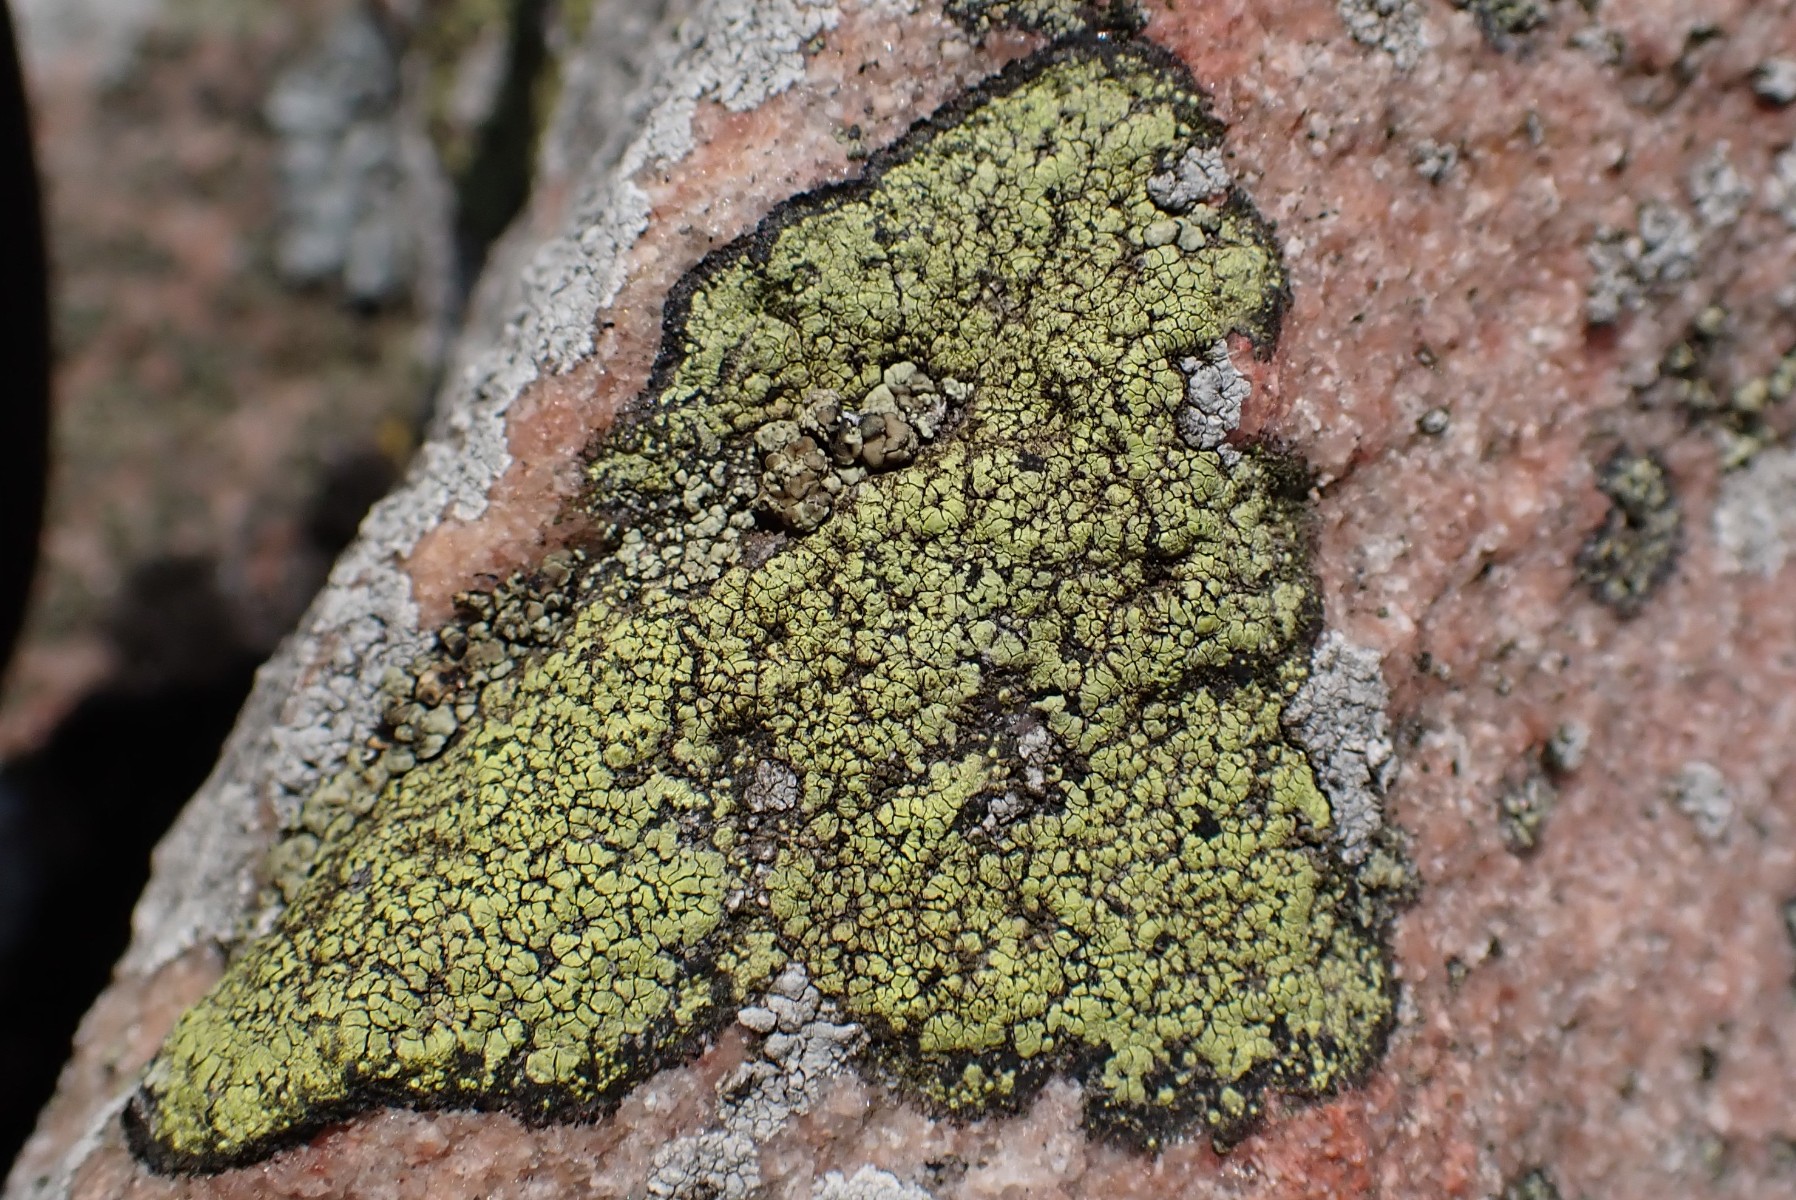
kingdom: Fungi
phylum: Ascomycota
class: Lecanoromycetes
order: Rhizocarpales
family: Rhizocarpaceae
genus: Rhizocarpon
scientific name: Rhizocarpon geographicum
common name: gulgrøn landkortlav
